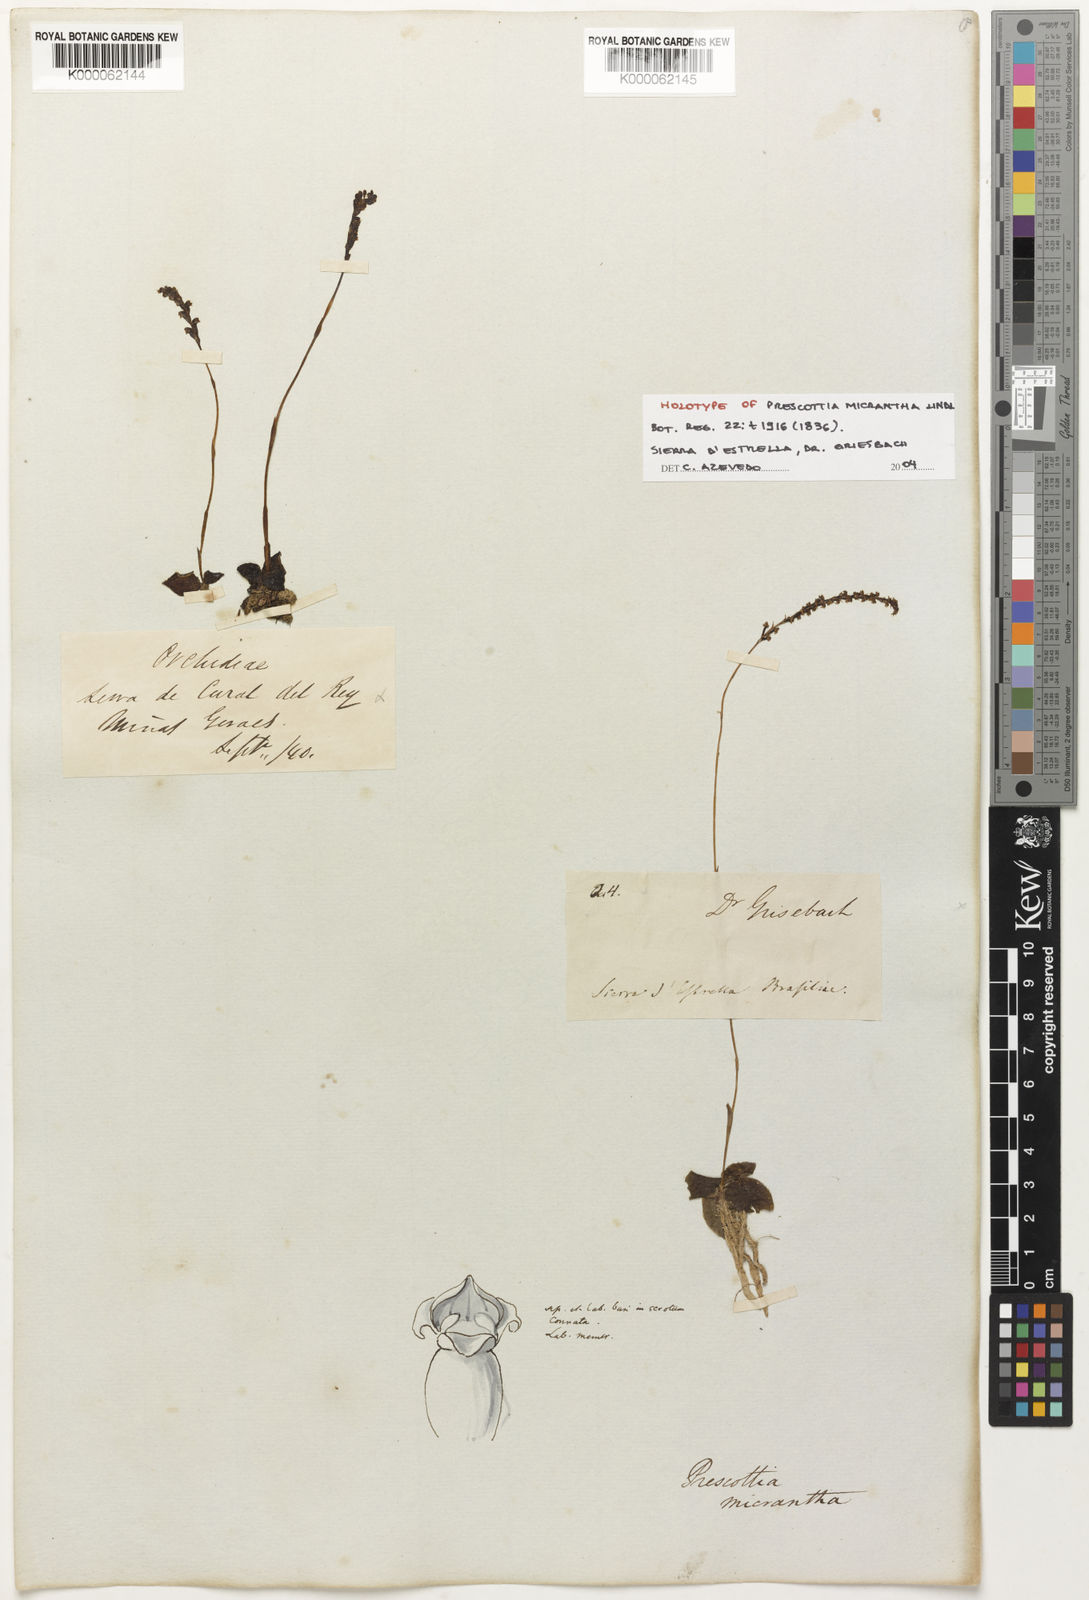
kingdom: Plantae
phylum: Tracheophyta
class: Liliopsida
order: Asparagales
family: Orchidaceae
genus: Prescottia
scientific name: Prescottia oligantha
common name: Small prescott orchid
